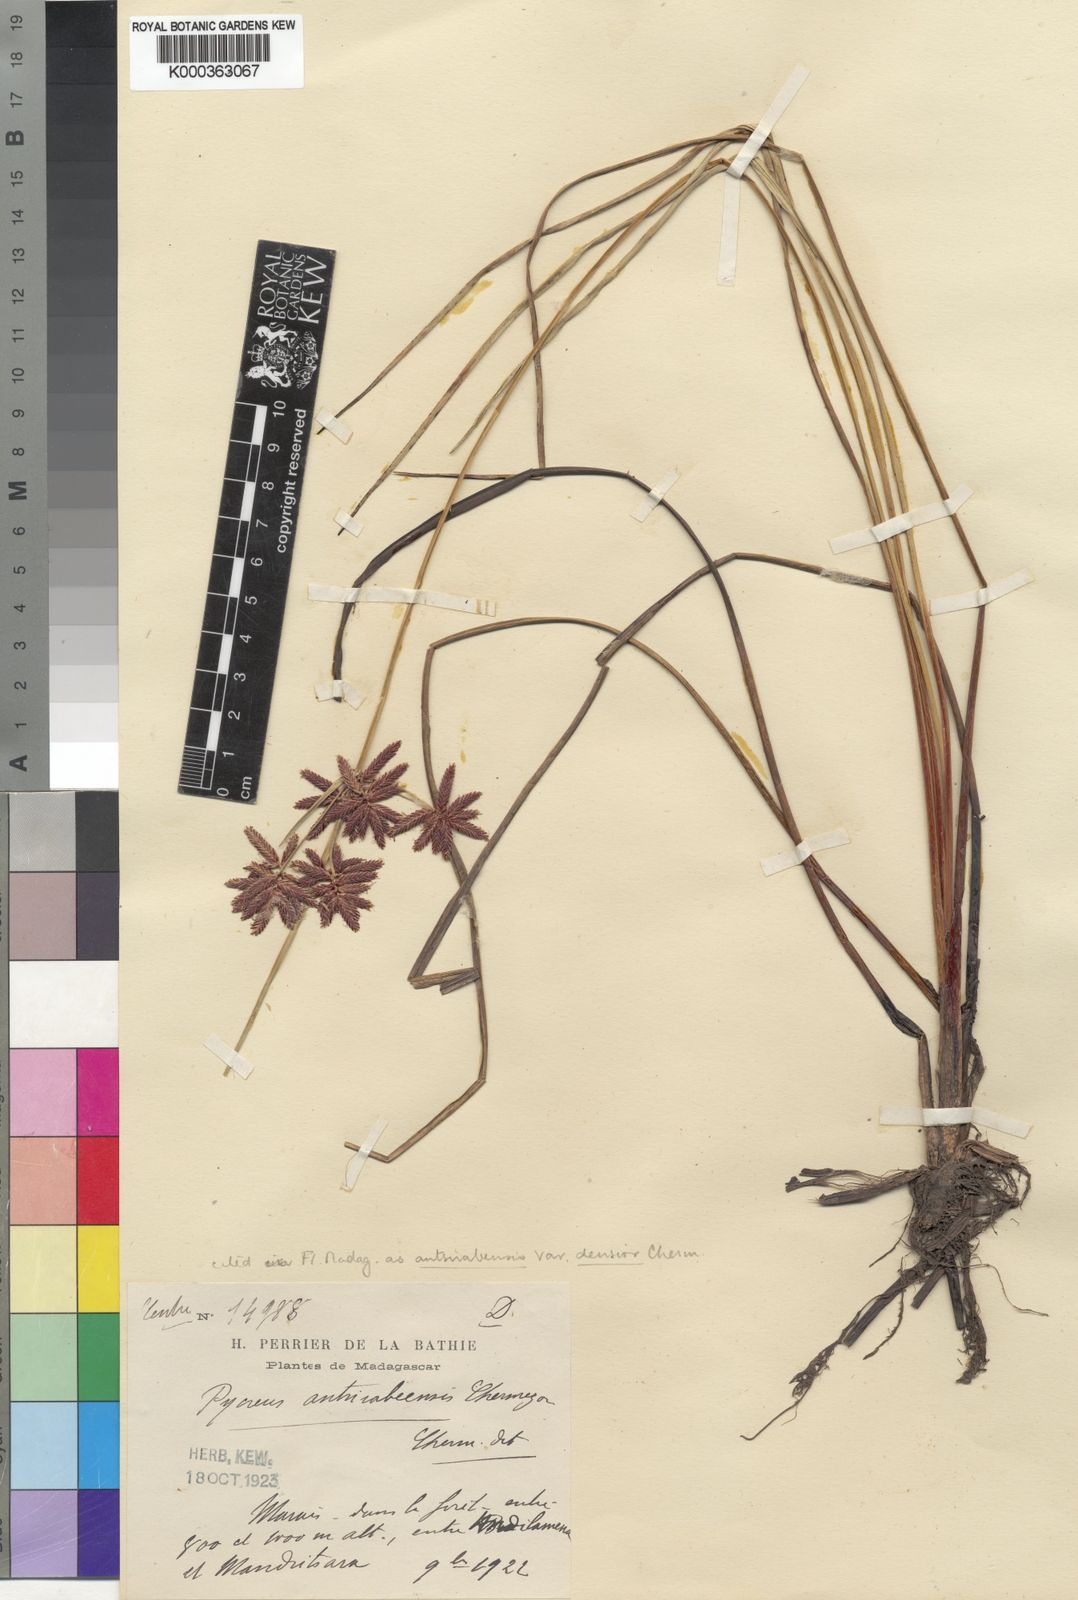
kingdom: Plantae
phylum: Tracheophyta
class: Liliopsida
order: Poales
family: Cyperaceae
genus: Cyperus
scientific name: Cyperus nitidus
